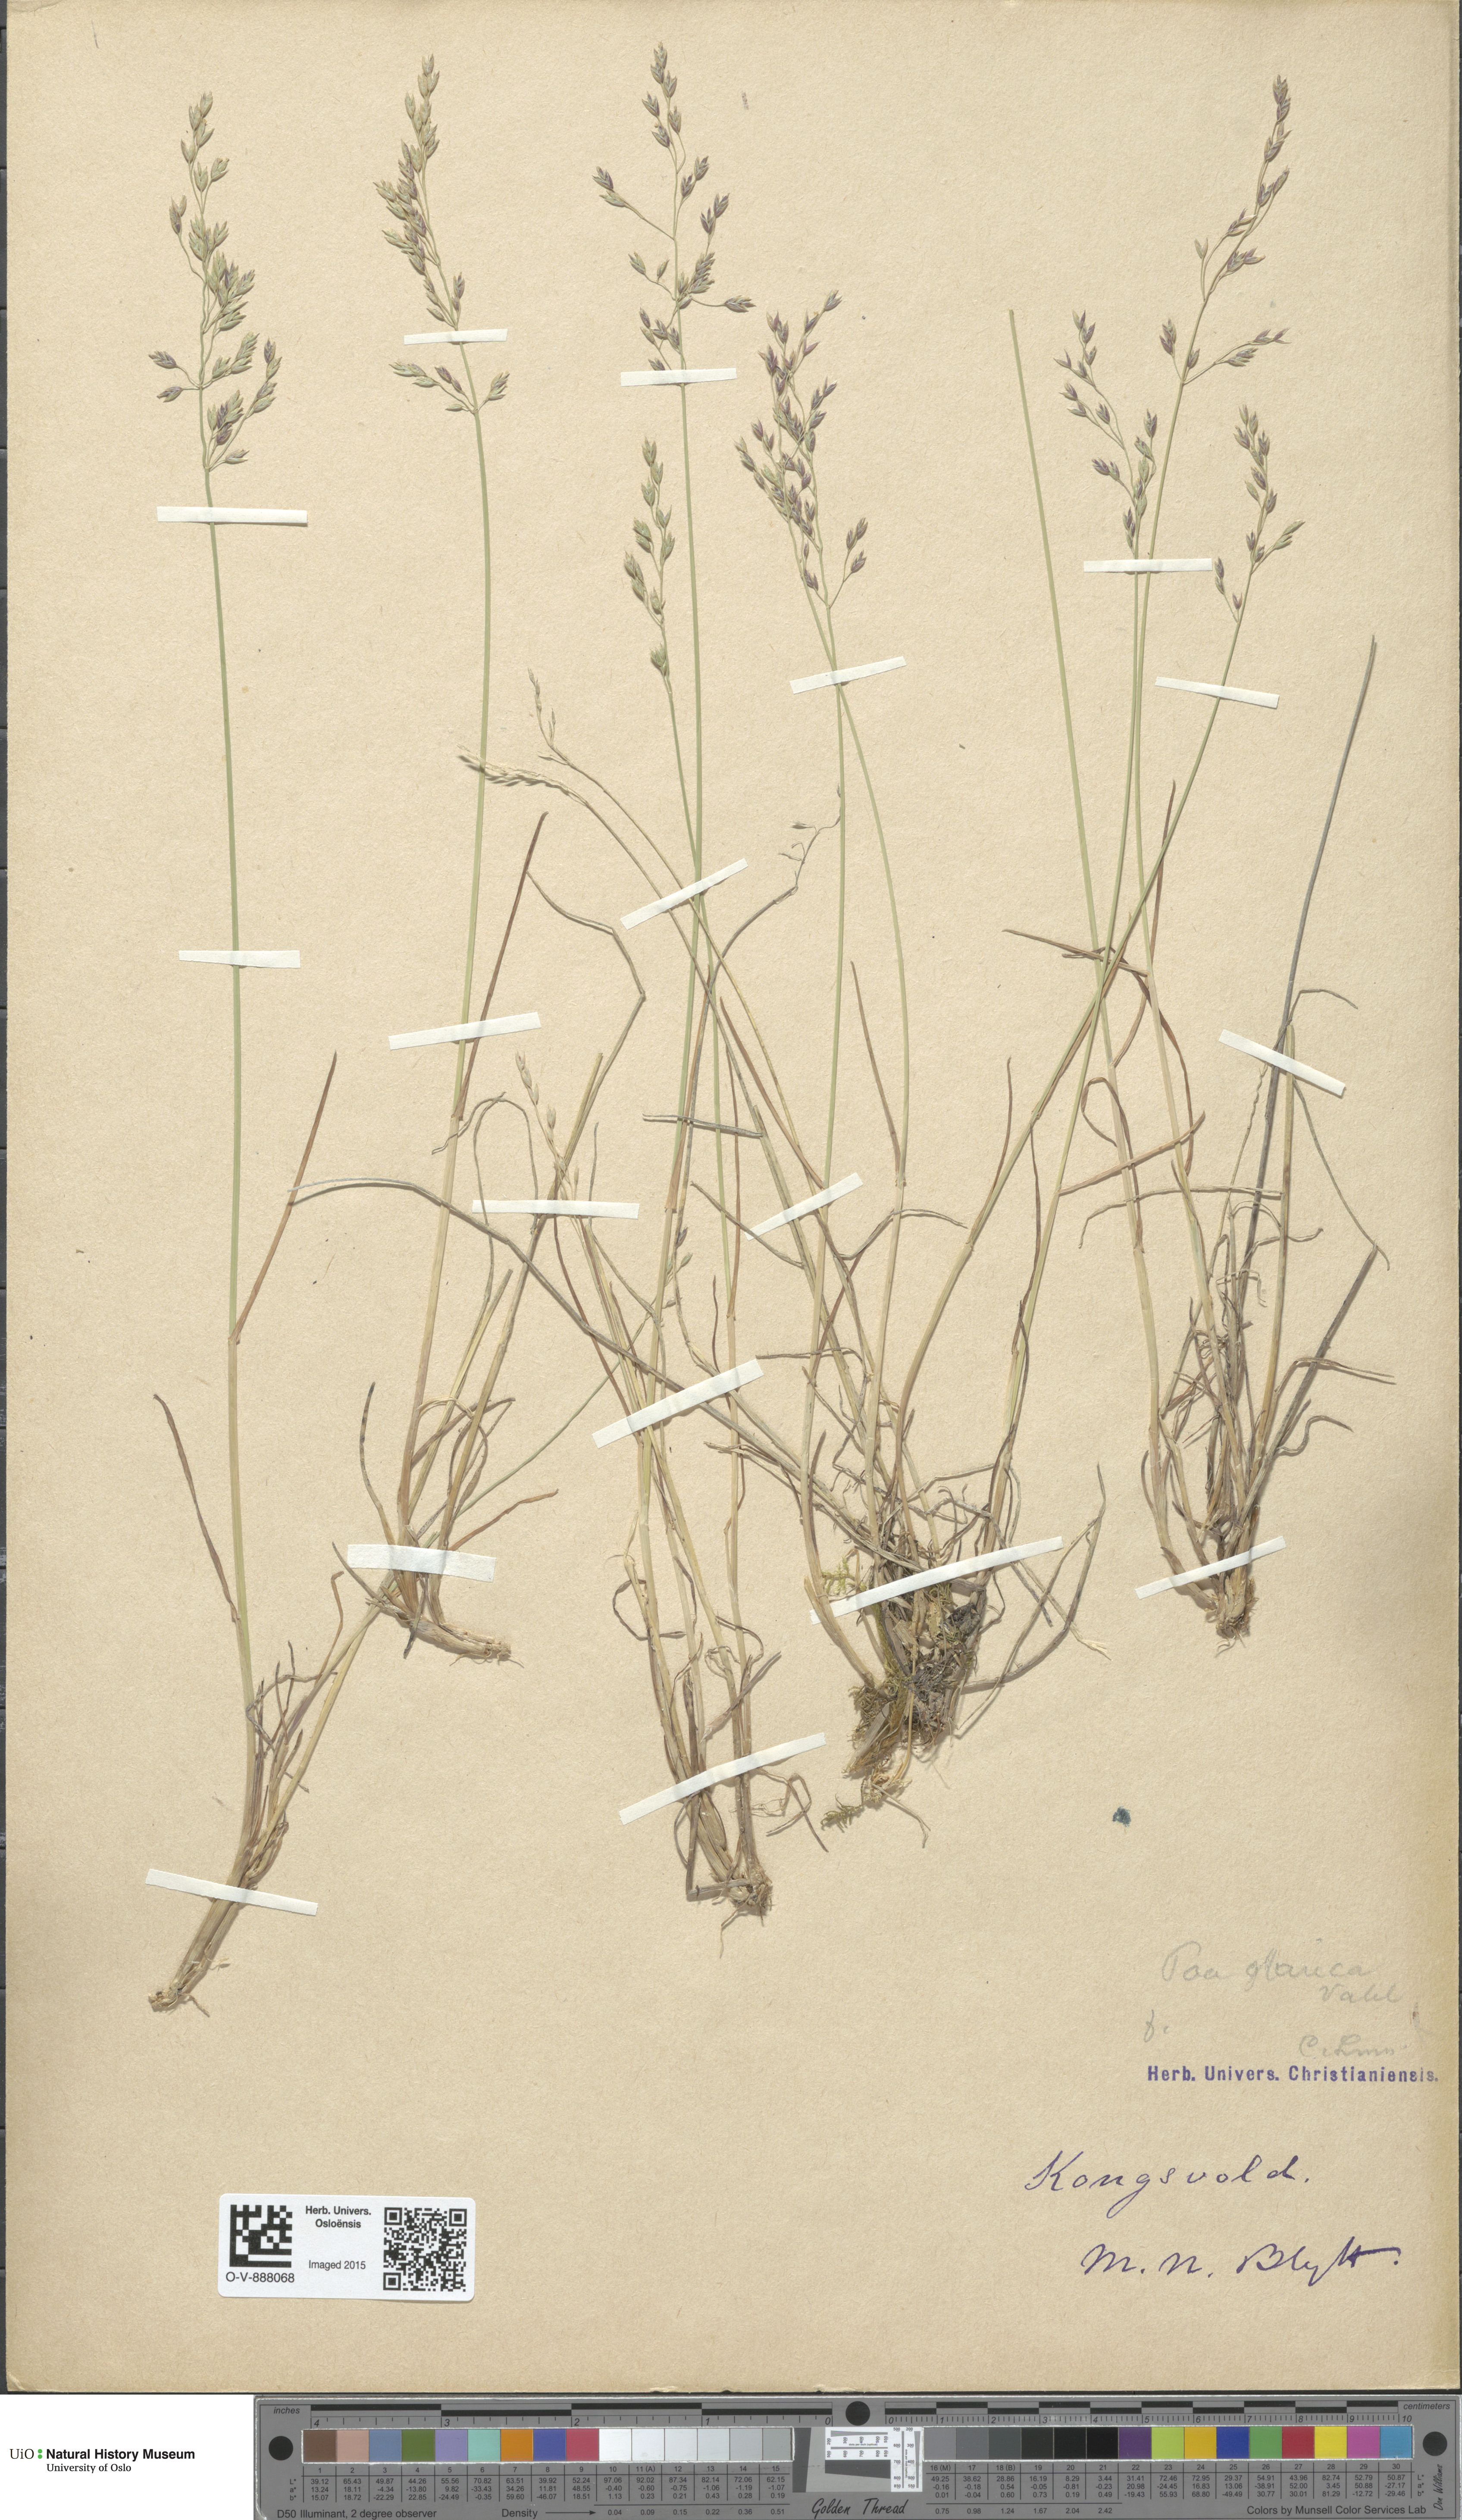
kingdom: Plantae
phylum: Tracheophyta
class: Liliopsida
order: Poales
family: Poaceae
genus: Poa
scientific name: Poa glauca
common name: Glaucous bluegrass
